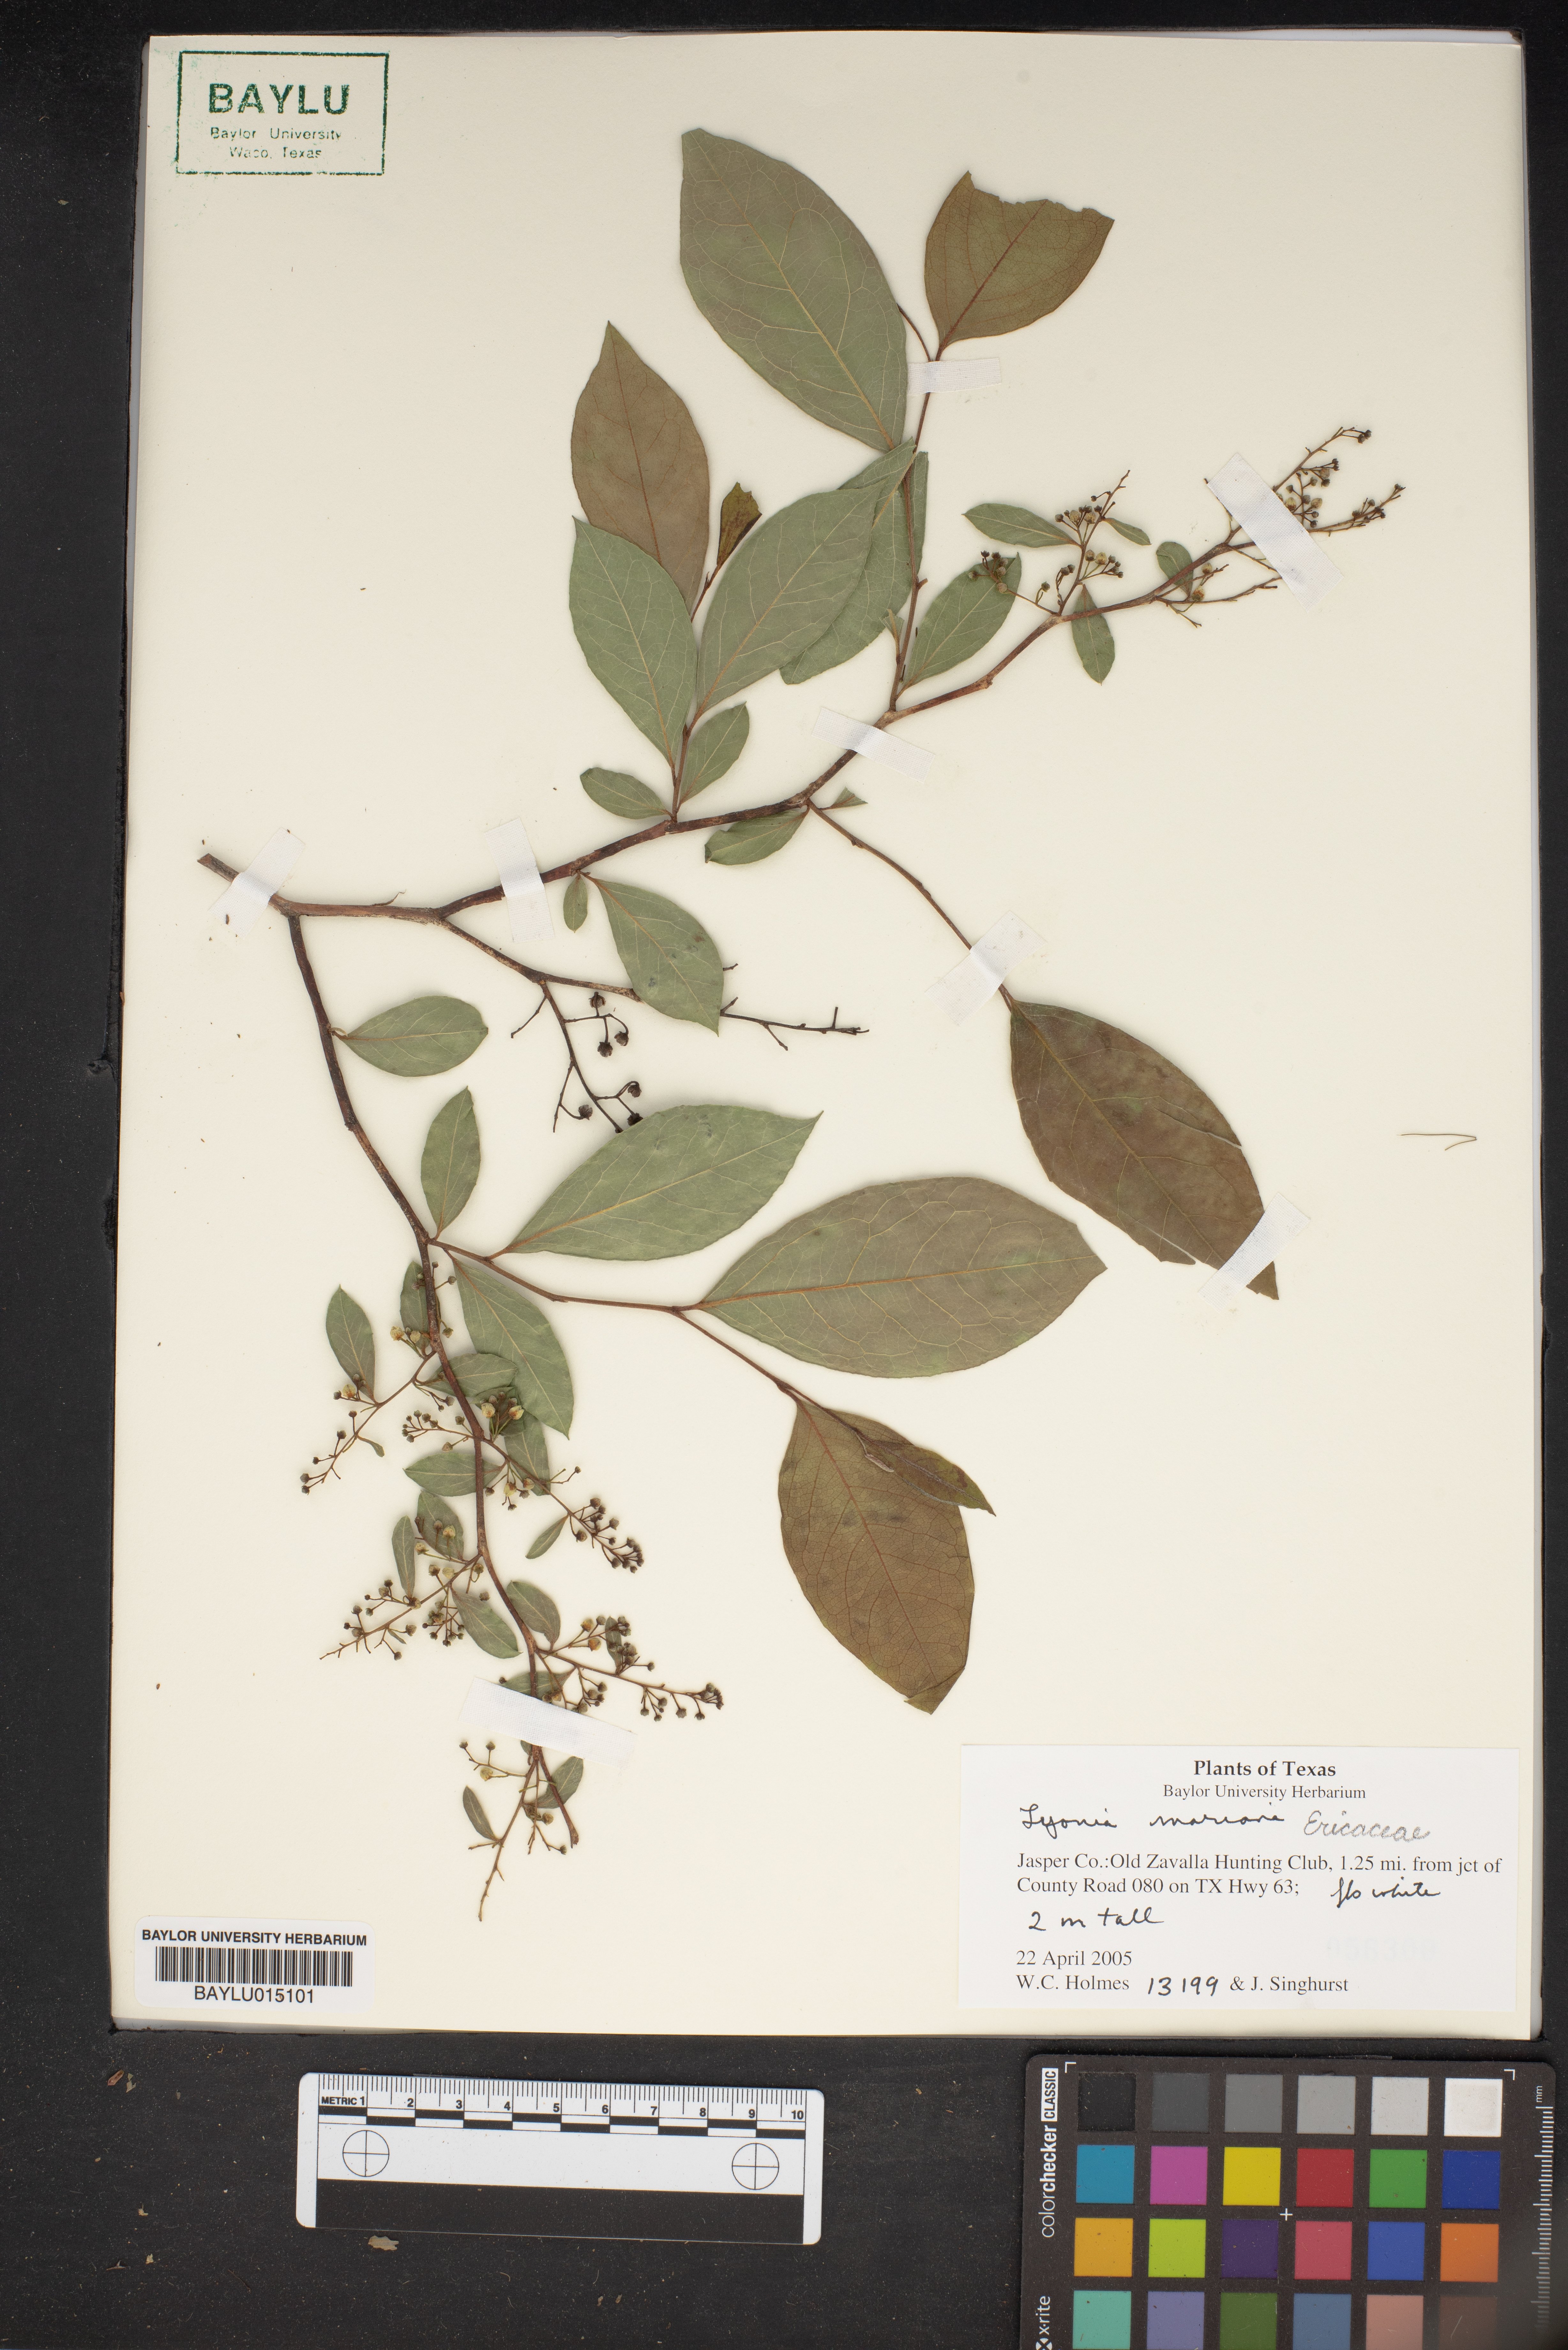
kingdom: Plantae
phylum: Tracheophyta
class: Magnoliopsida
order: Ericales
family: Ericaceae
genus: Lyonia
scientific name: Lyonia mariana
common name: Staggerbush
